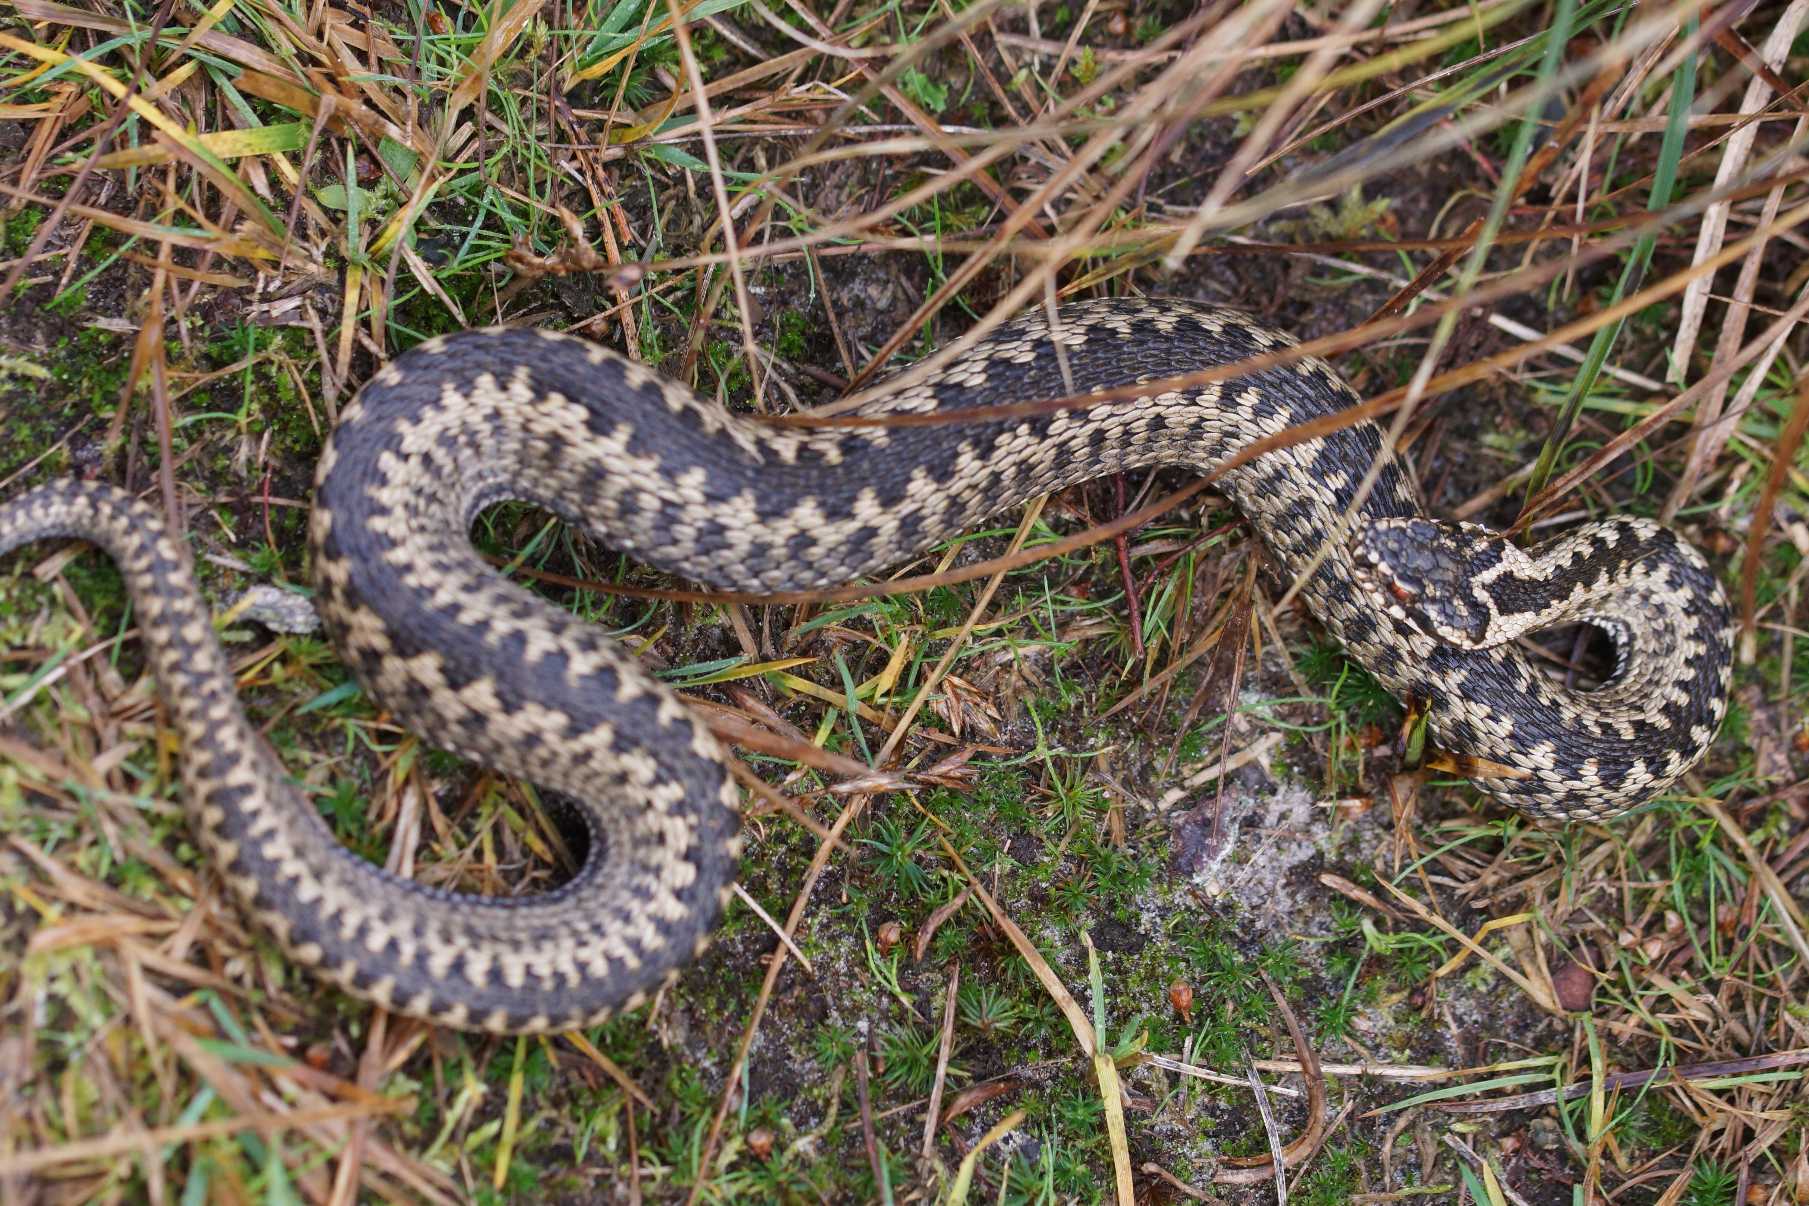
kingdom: Animalia
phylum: Chordata
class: Squamata
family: Viperidae
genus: Vipera
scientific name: Vipera berus
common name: Hugorm
